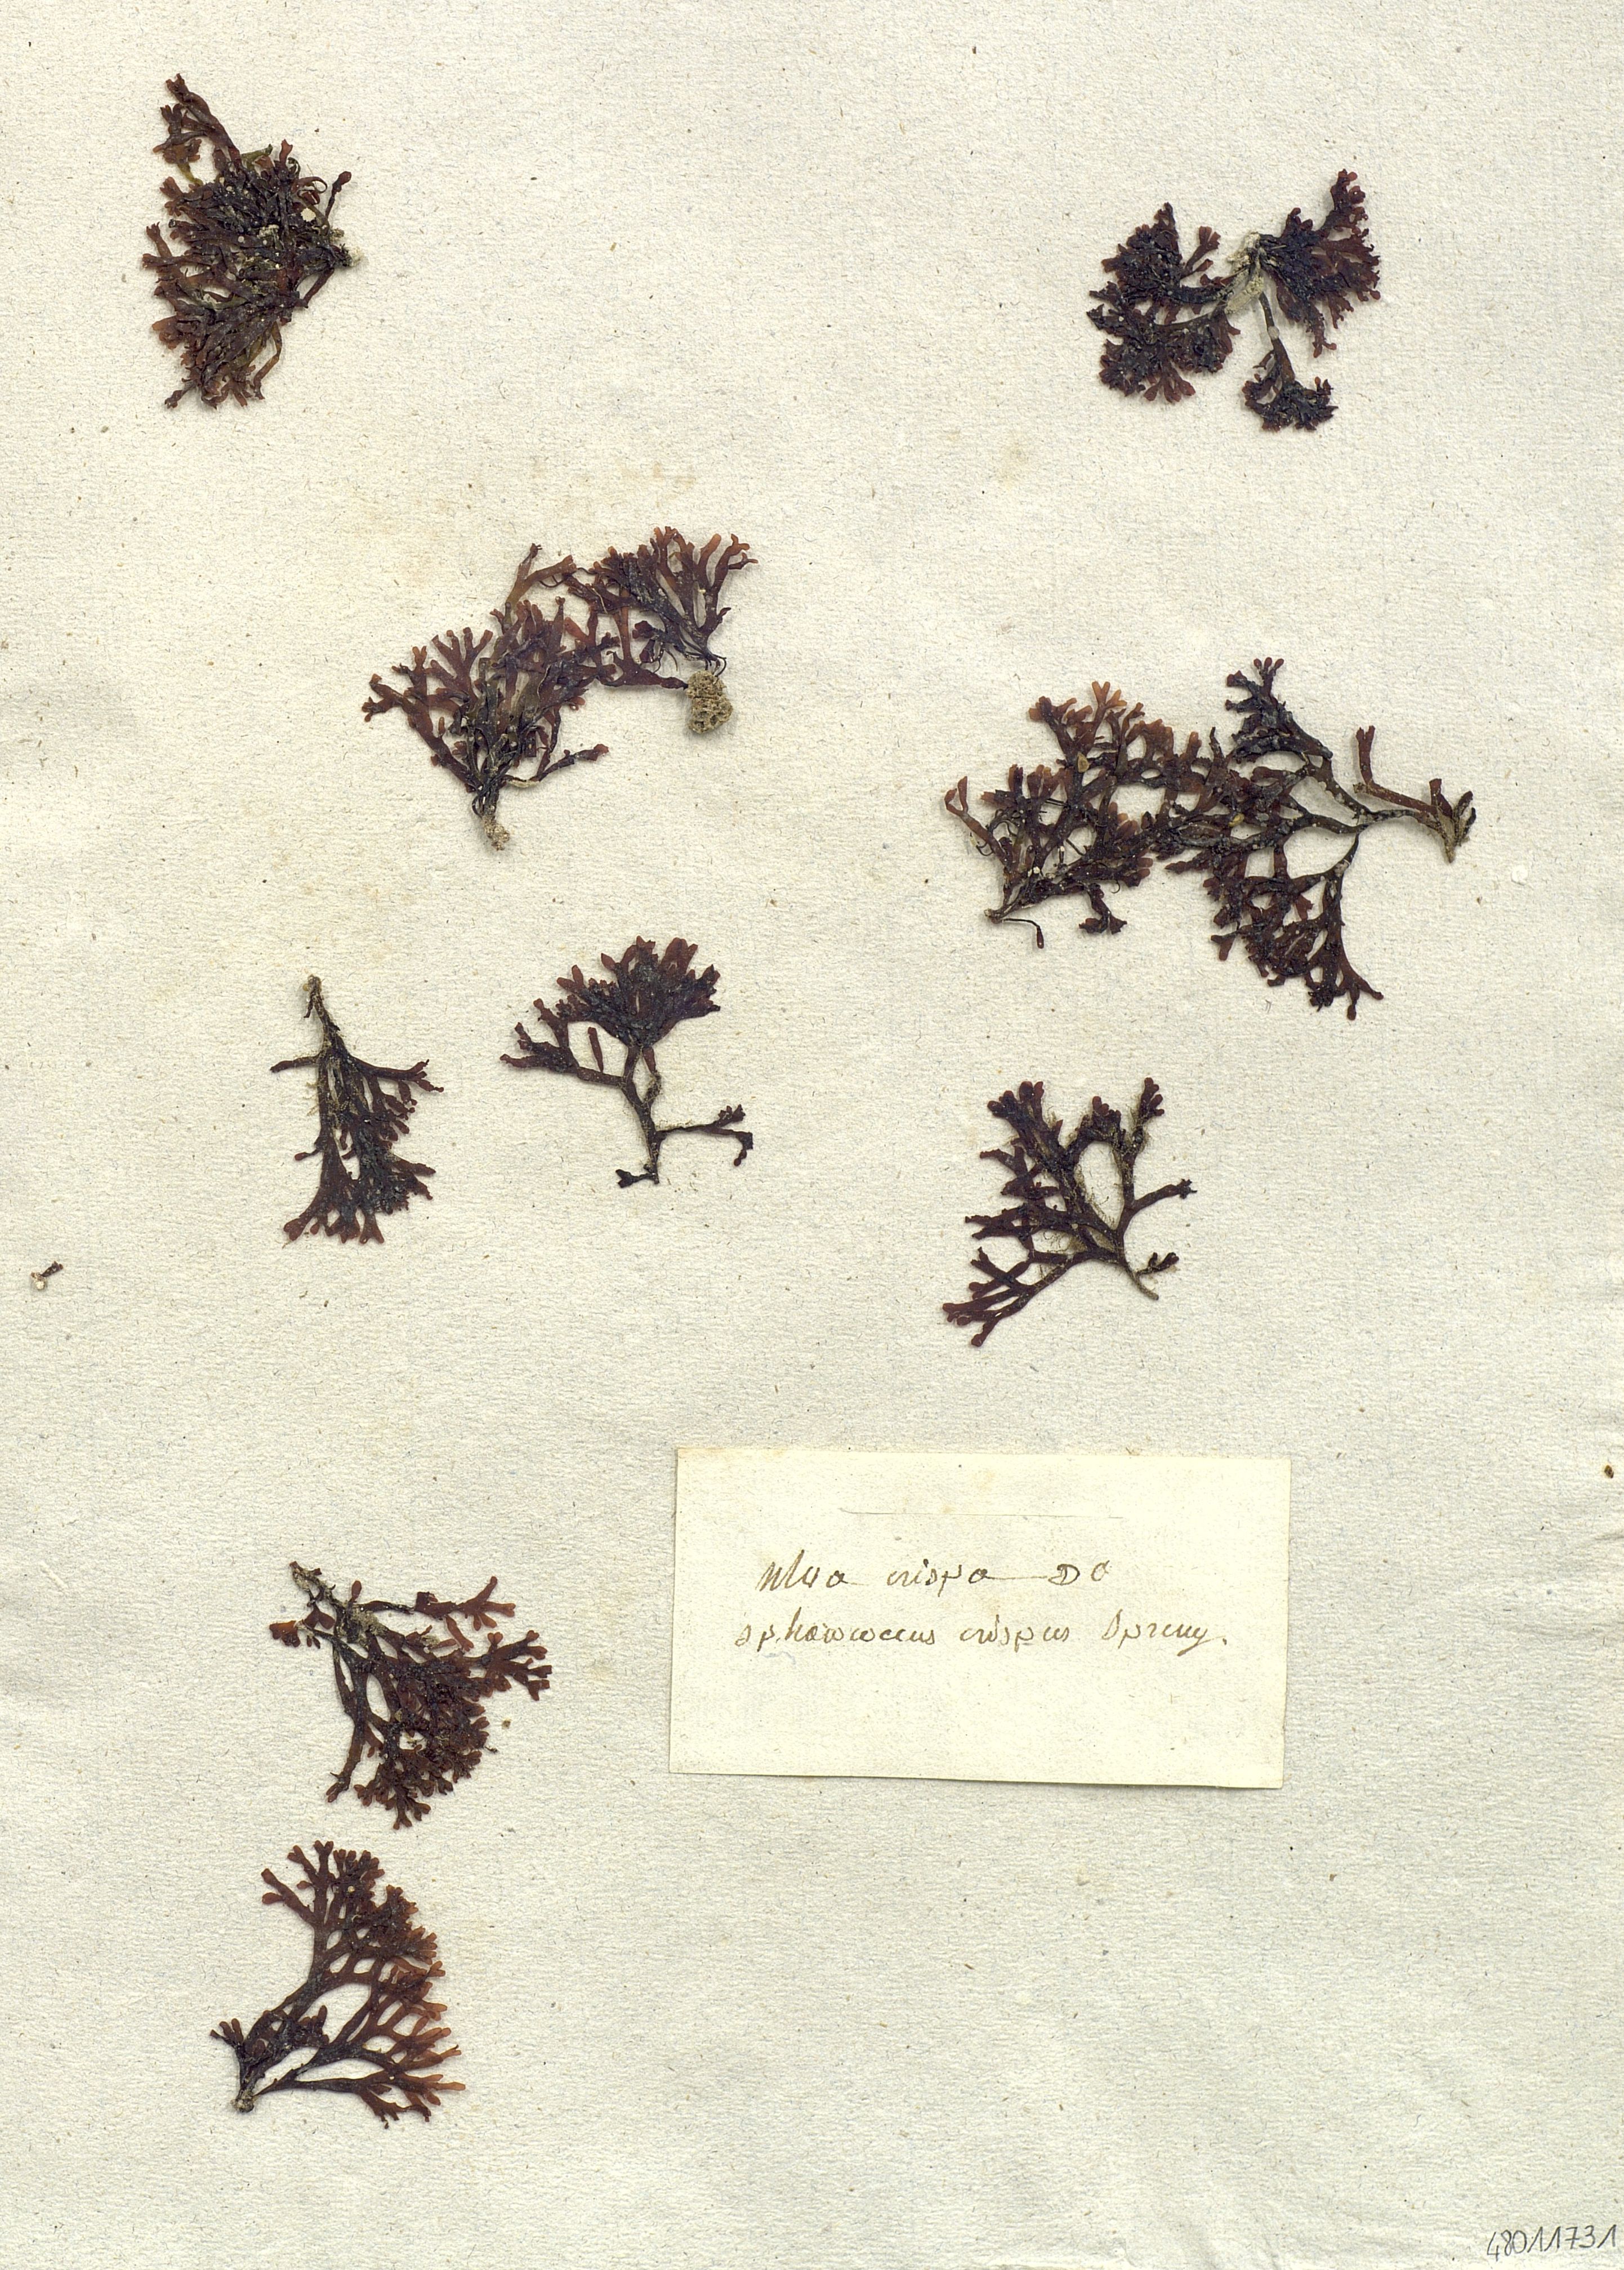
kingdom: Plantae
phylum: Chlorophyta
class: Ulvophyceae
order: Ulvales
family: Ulvaceae
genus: Ulva
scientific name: Ulva
